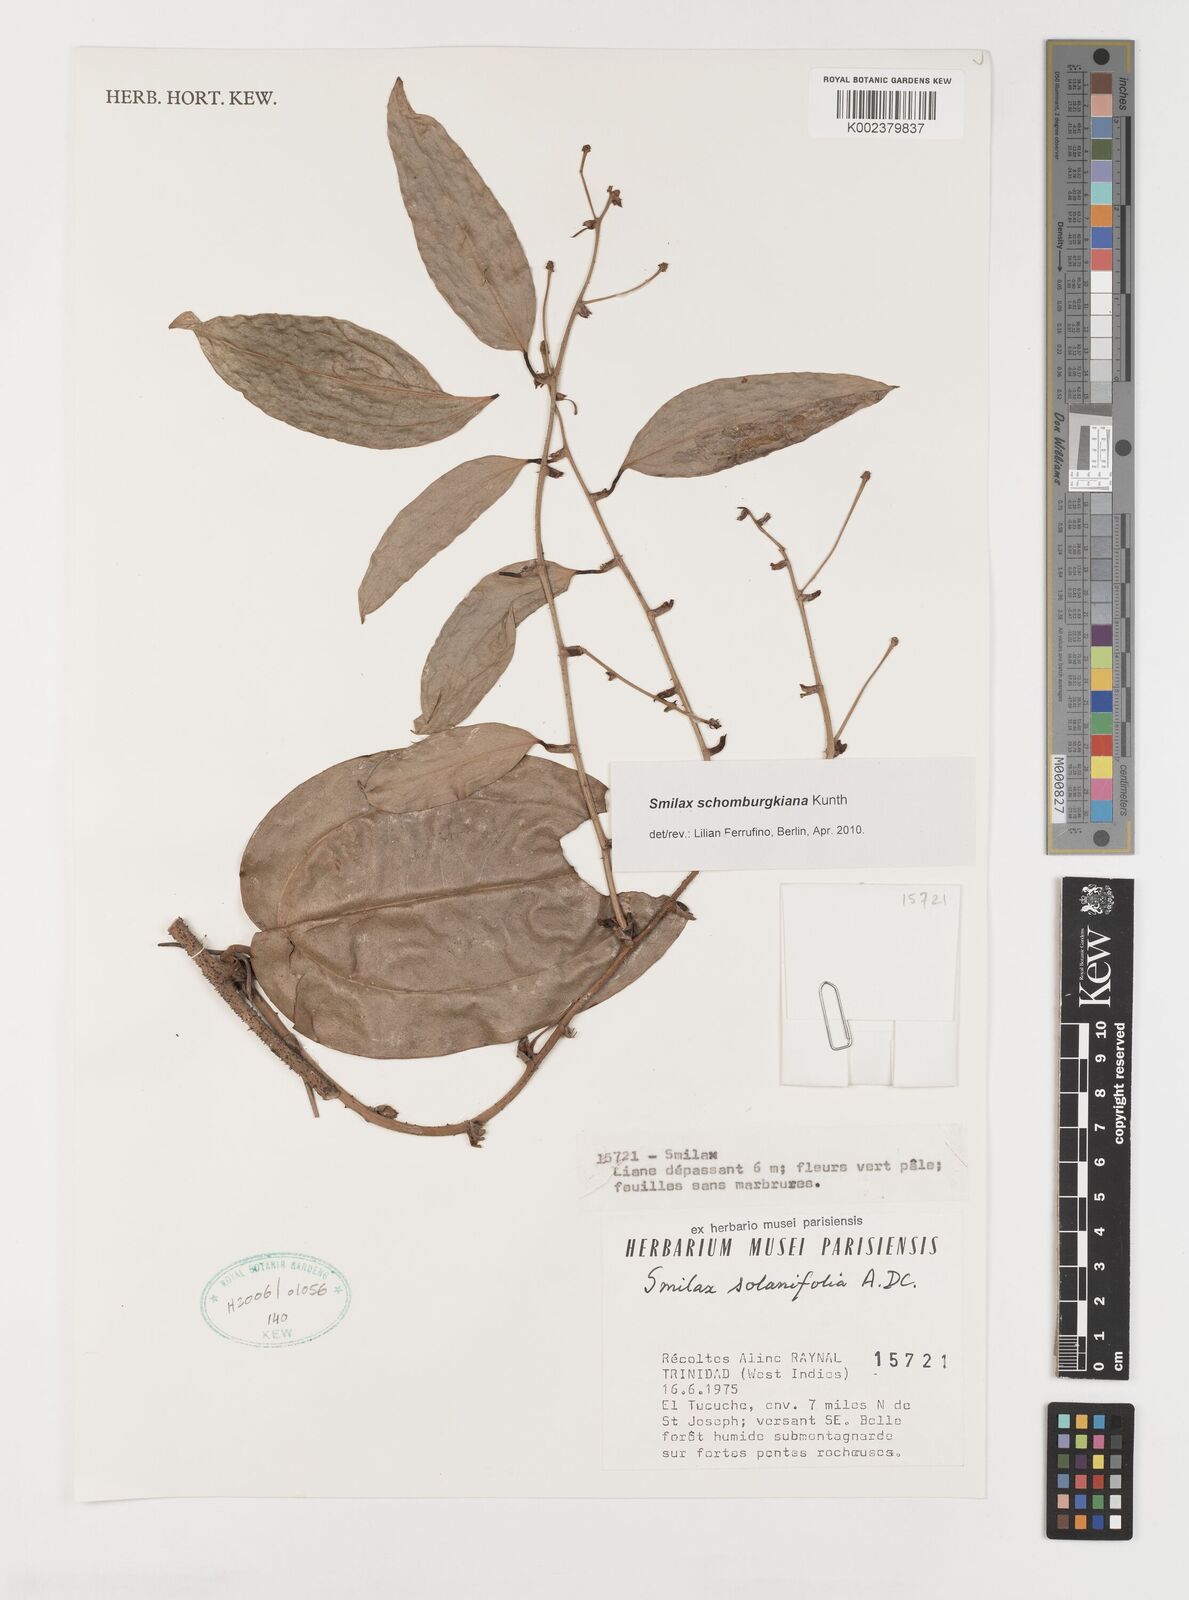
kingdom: Plantae
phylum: Tracheophyta
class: Liliopsida
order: Liliales
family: Smilacaceae
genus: Smilax
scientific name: Smilax schomburgkiana
